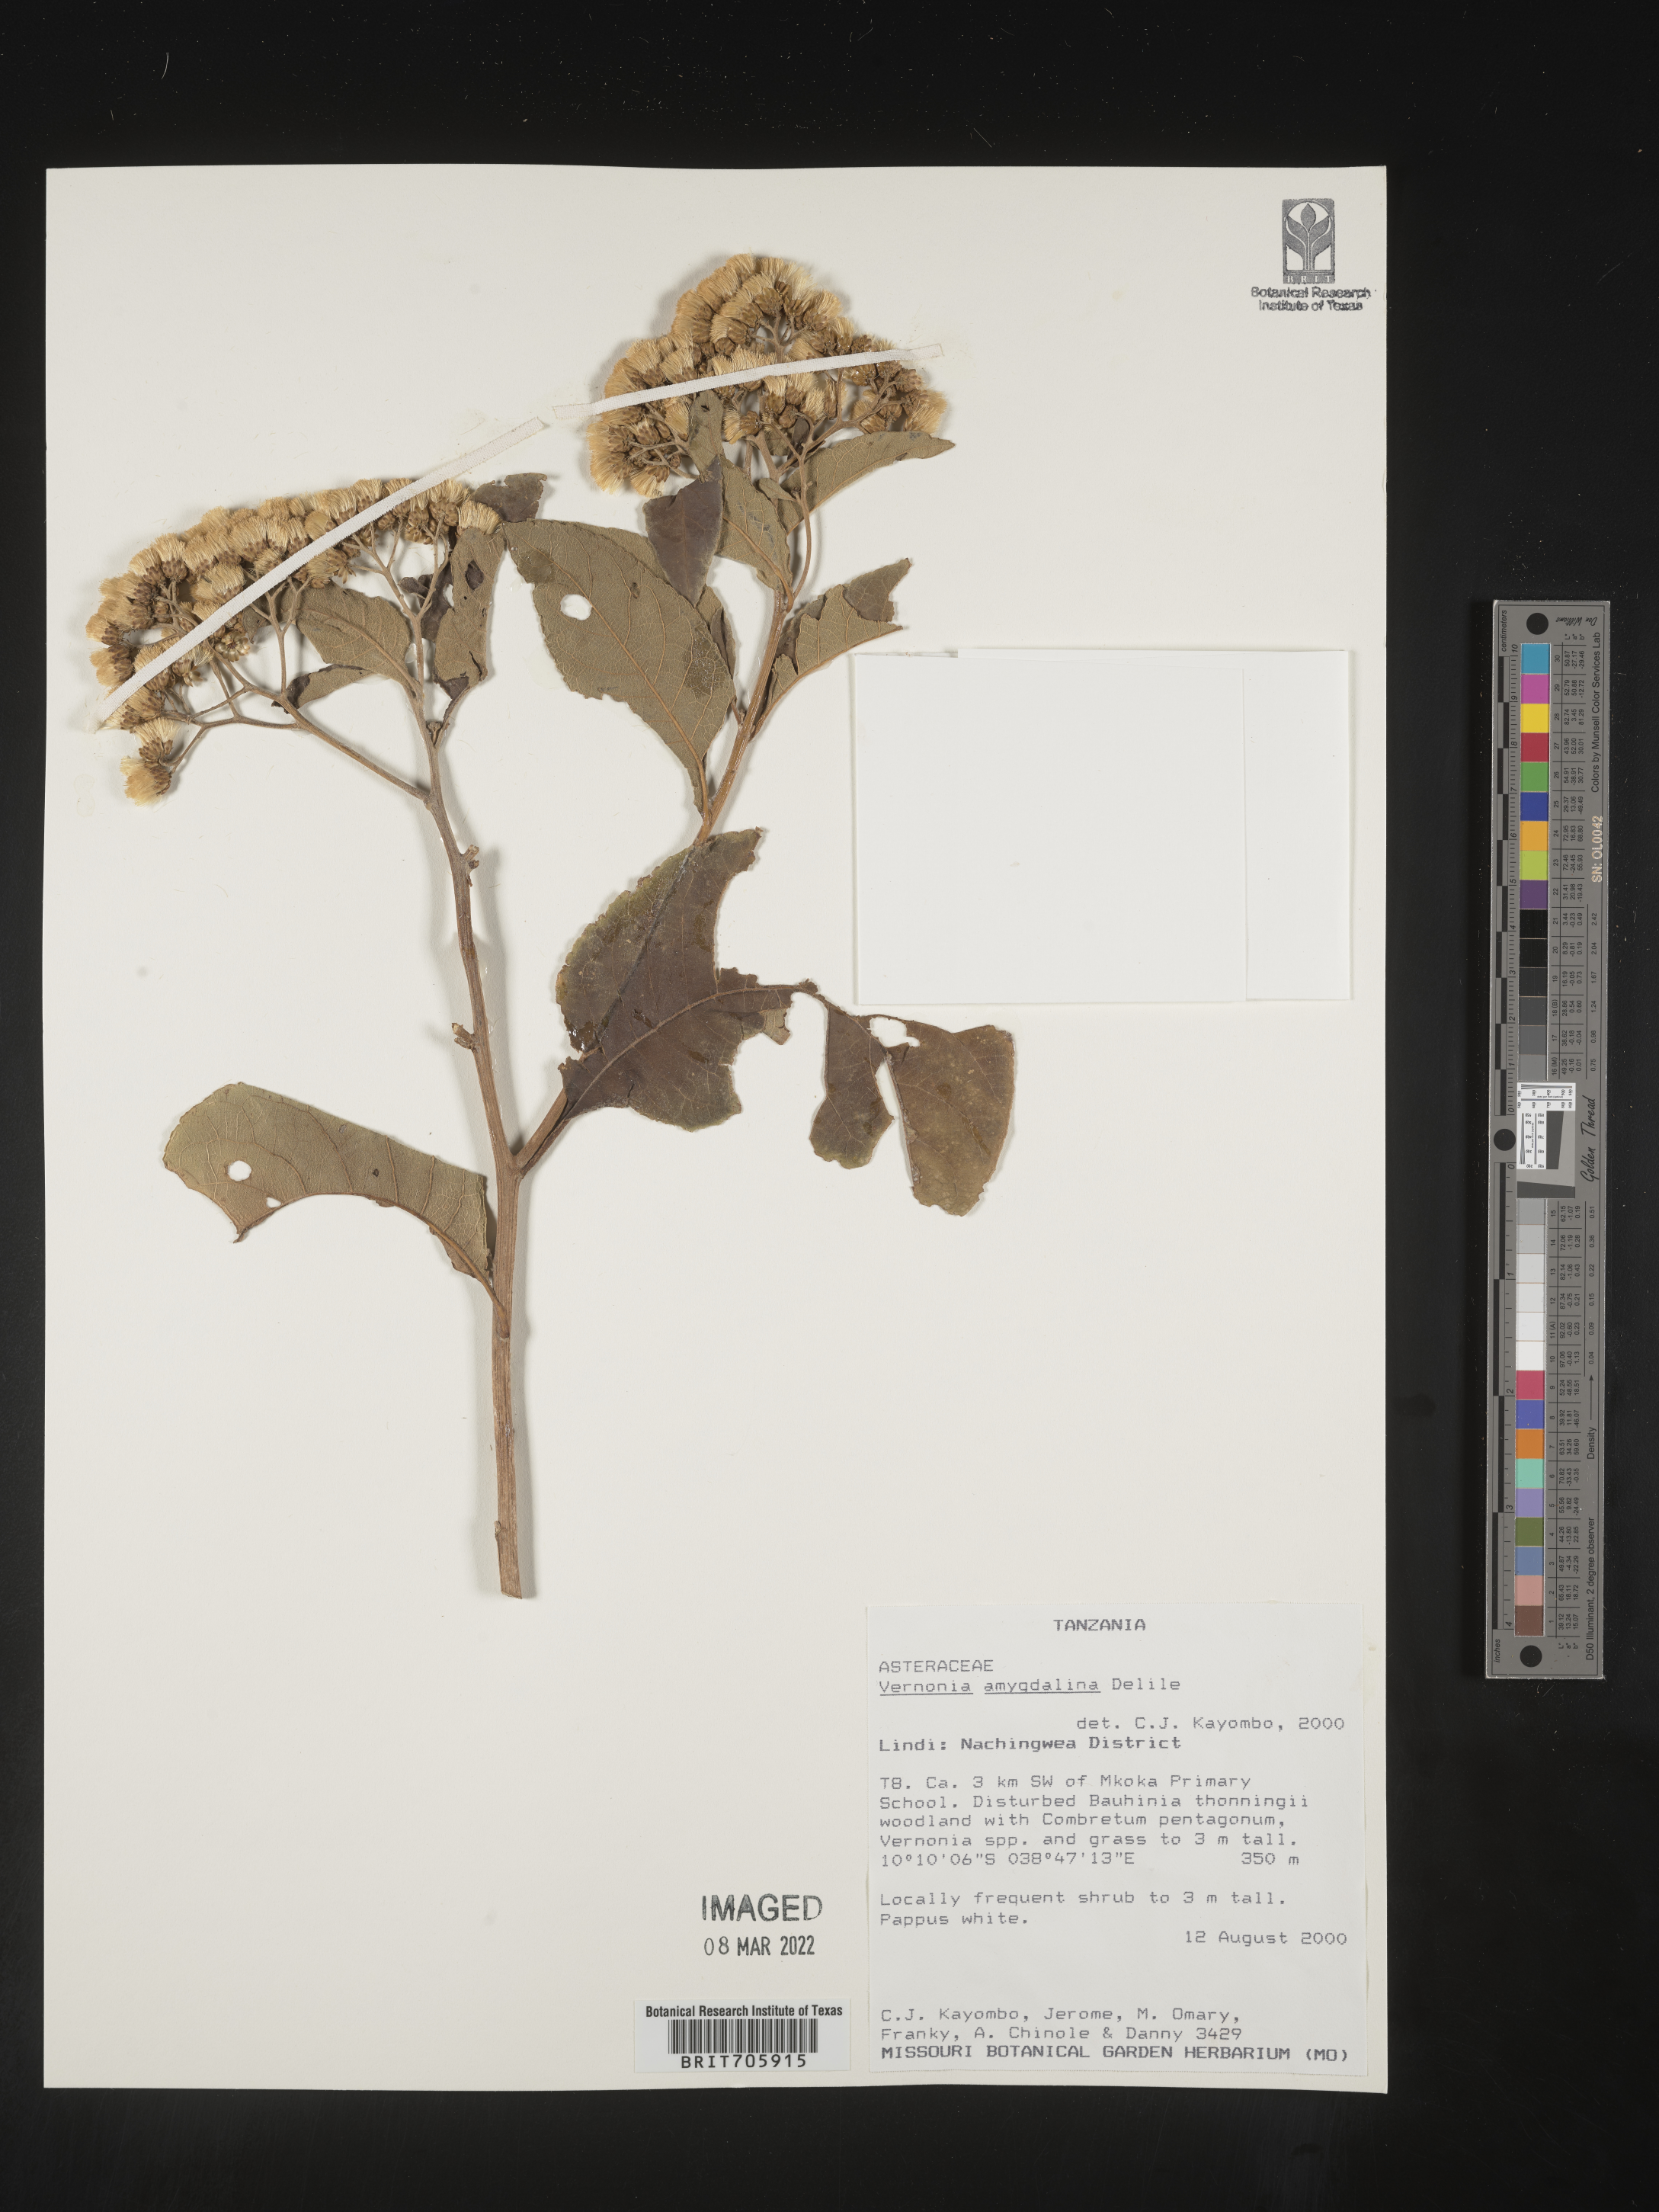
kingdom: Plantae
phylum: Tracheophyta
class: Magnoliopsida
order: Asterales
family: Asteraceae
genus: Vernonia
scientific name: Vernonia
